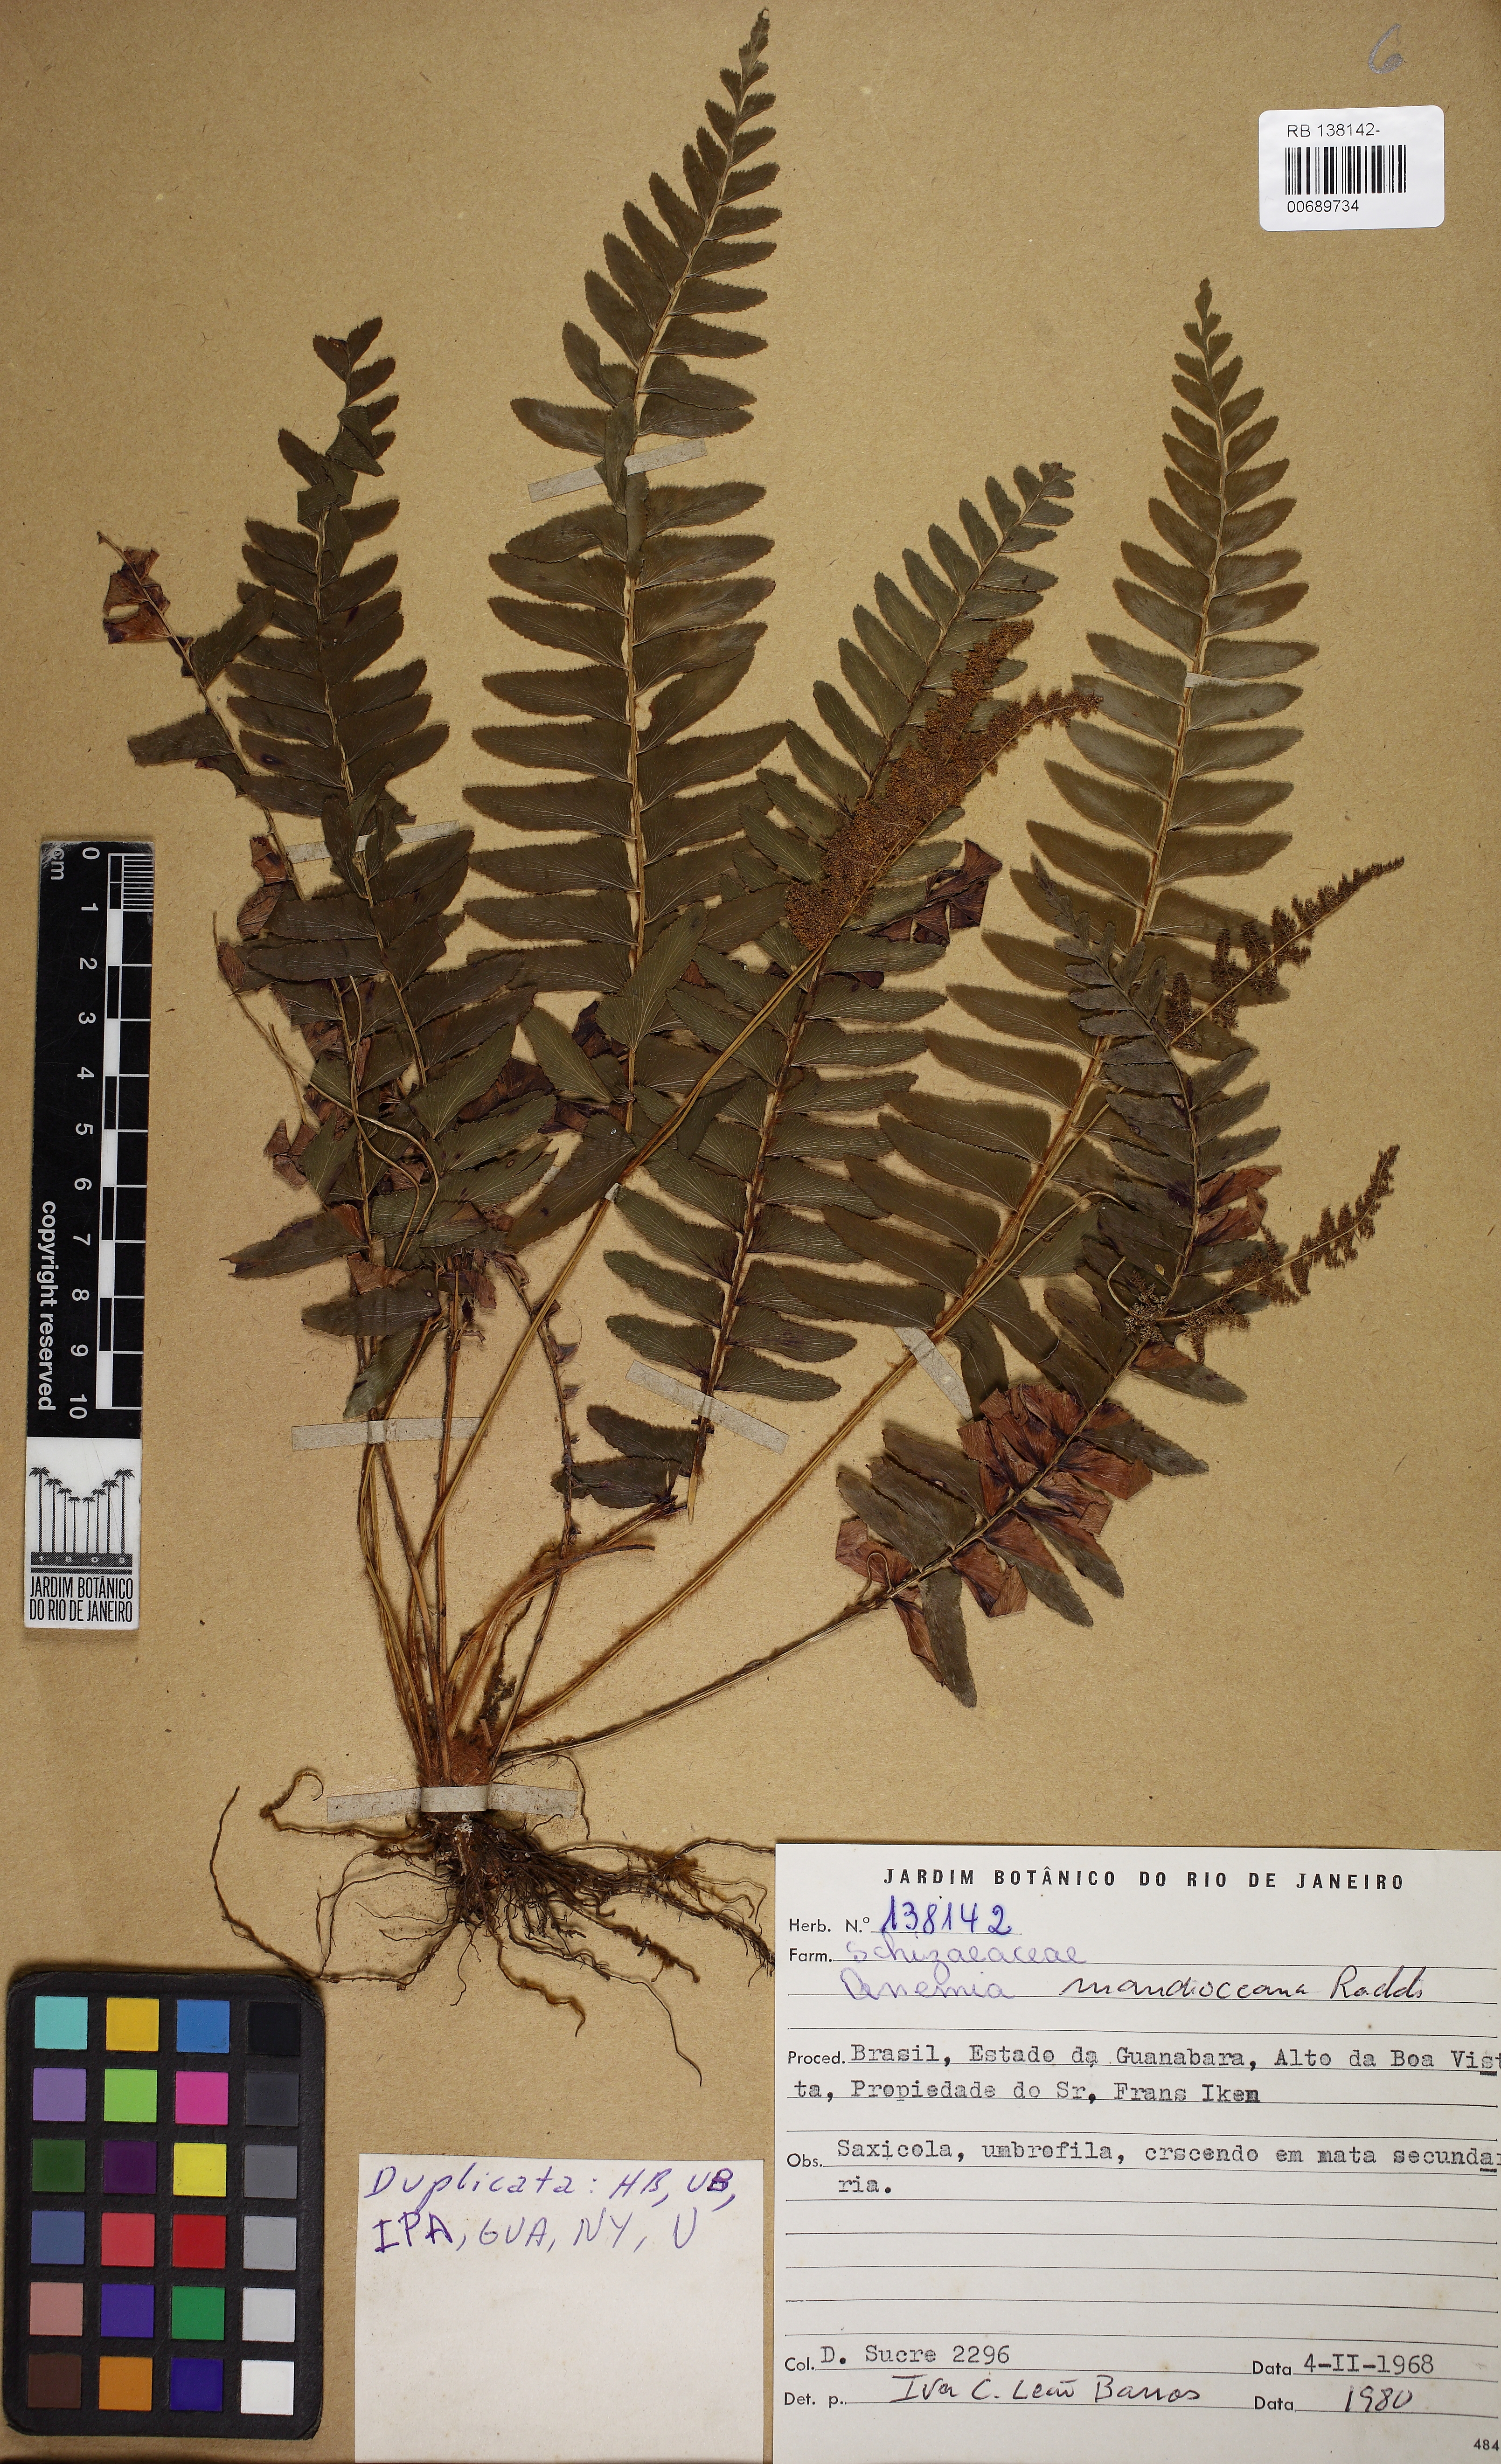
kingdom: Plantae
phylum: Tracheophyta
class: Polypodiopsida
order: Schizaeales
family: Anemiaceae
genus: Anemia
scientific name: Anemia mandiocana
